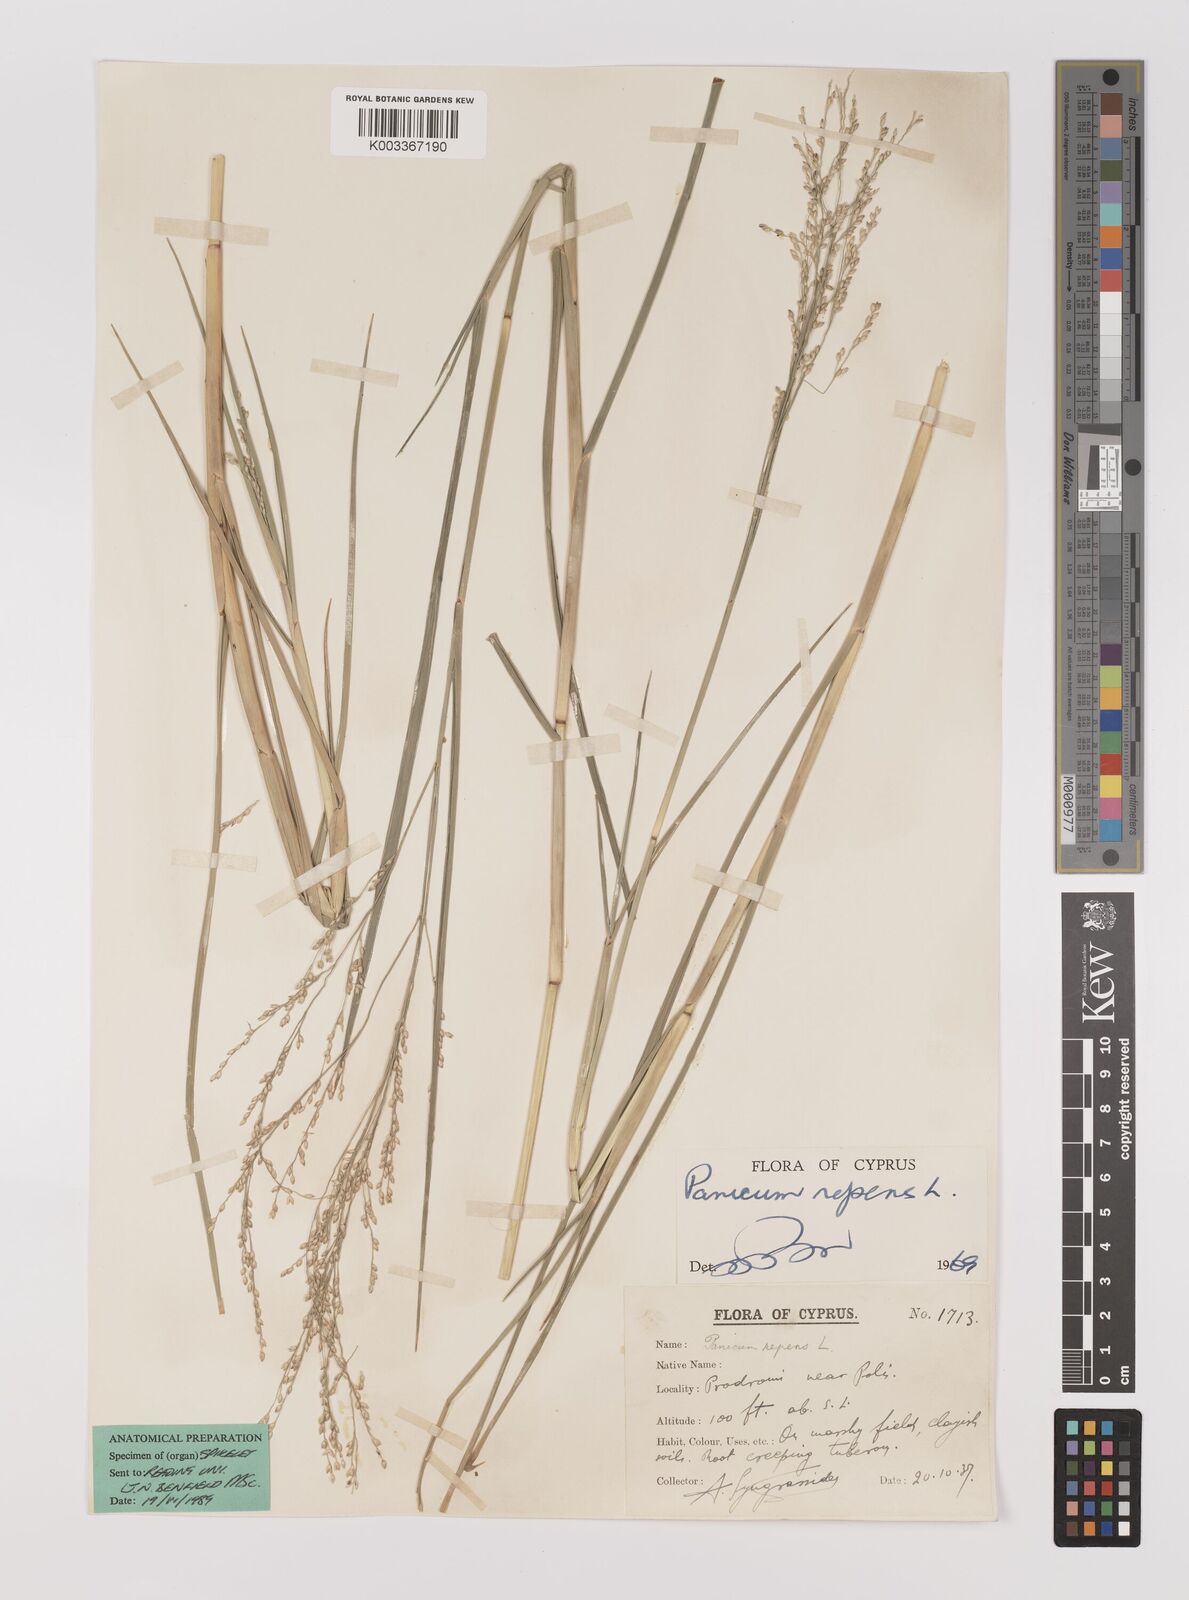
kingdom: Plantae
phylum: Tracheophyta
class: Liliopsida
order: Poales
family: Poaceae
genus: Panicum
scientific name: Panicum repens
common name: Torpedo grass
